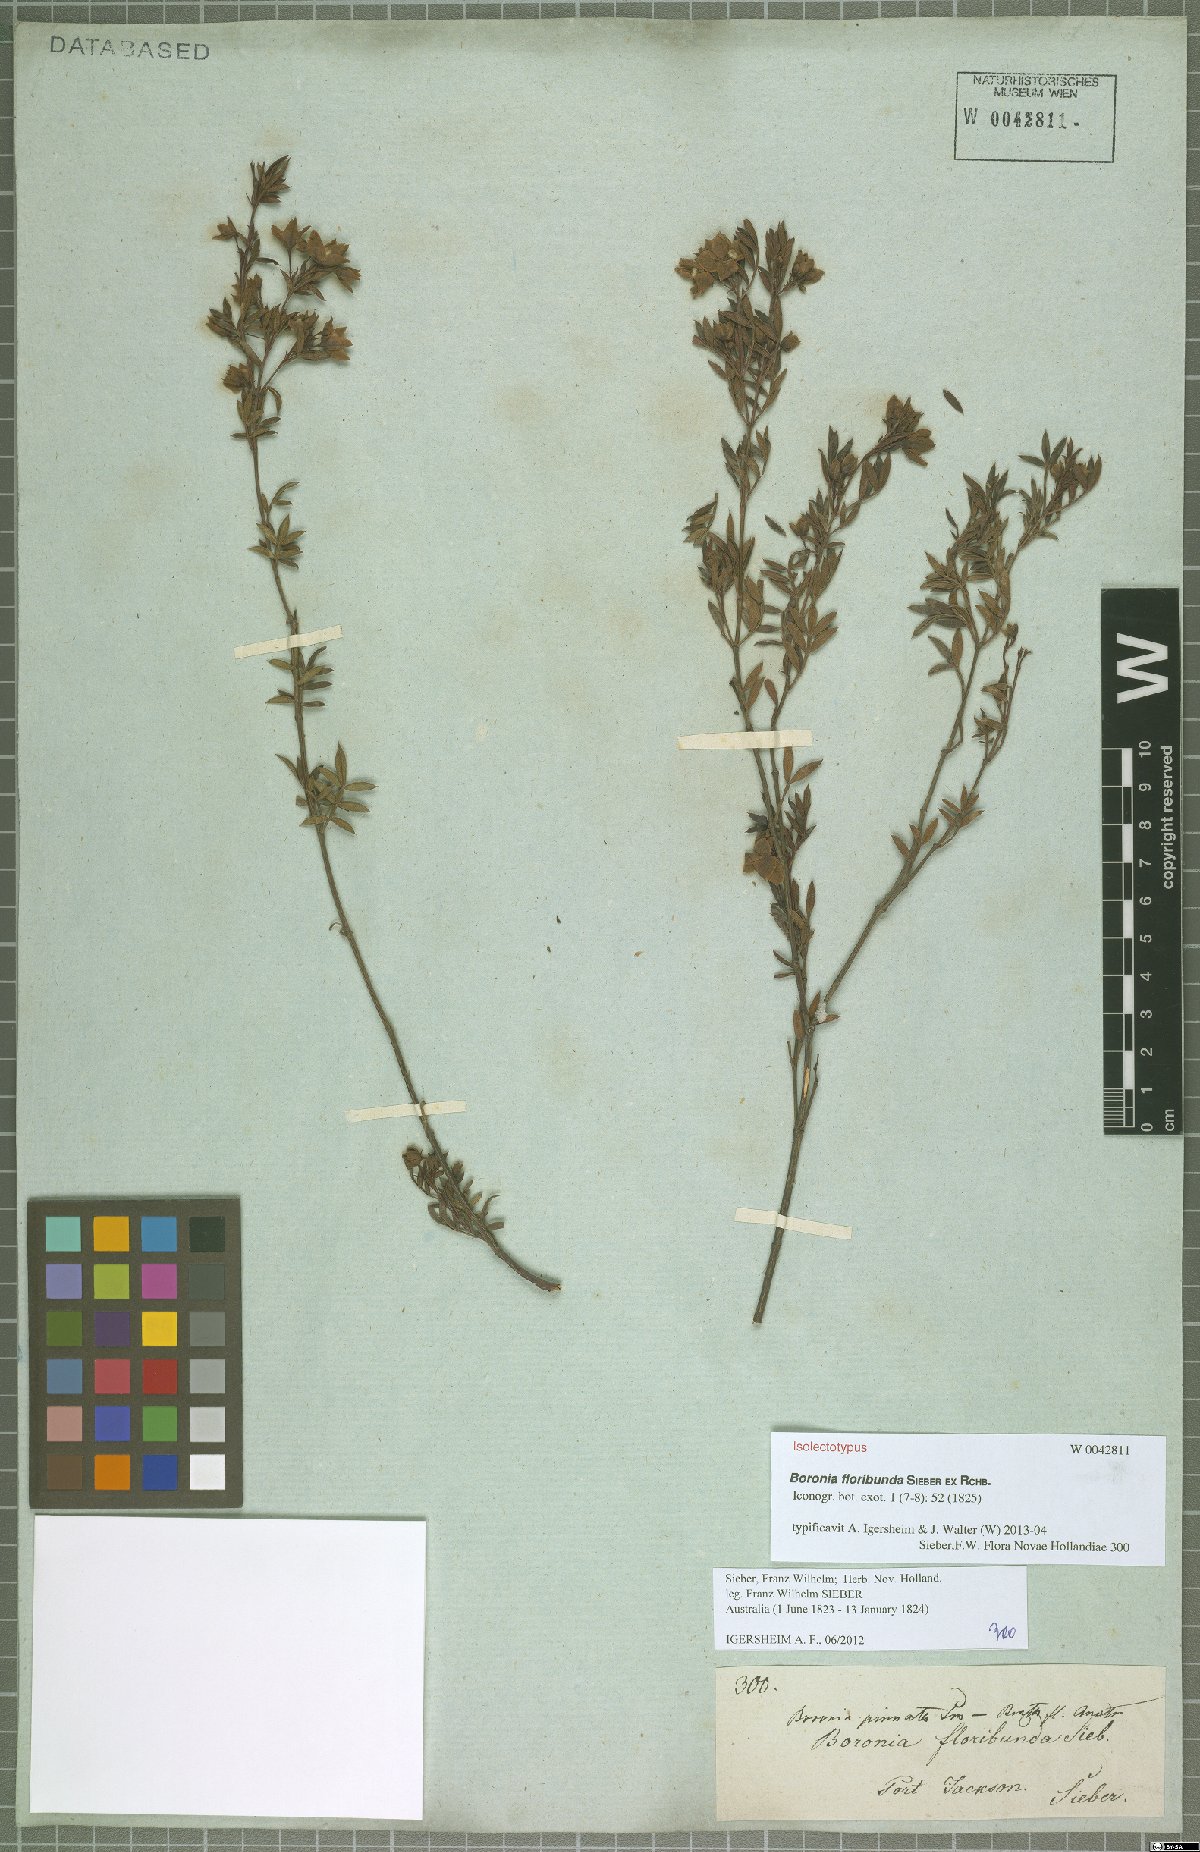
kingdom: Plantae
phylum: Tracheophyta
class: Magnoliopsida
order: Sapindales
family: Rutaceae
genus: Boronia
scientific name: Boronia floribunda
